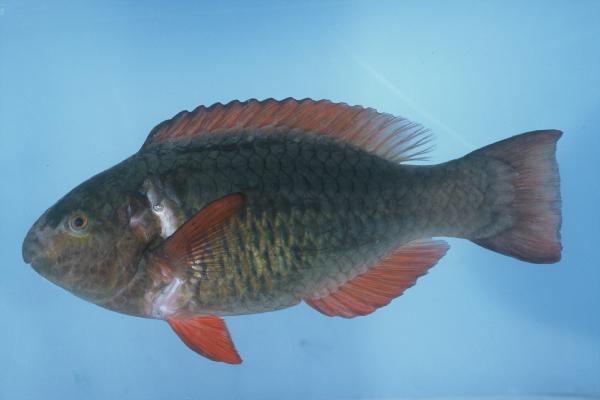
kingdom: Animalia
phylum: Chordata
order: Perciformes
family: Scaridae
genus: Scarus
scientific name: Scarus frenatus
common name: Bridled parrotfish
